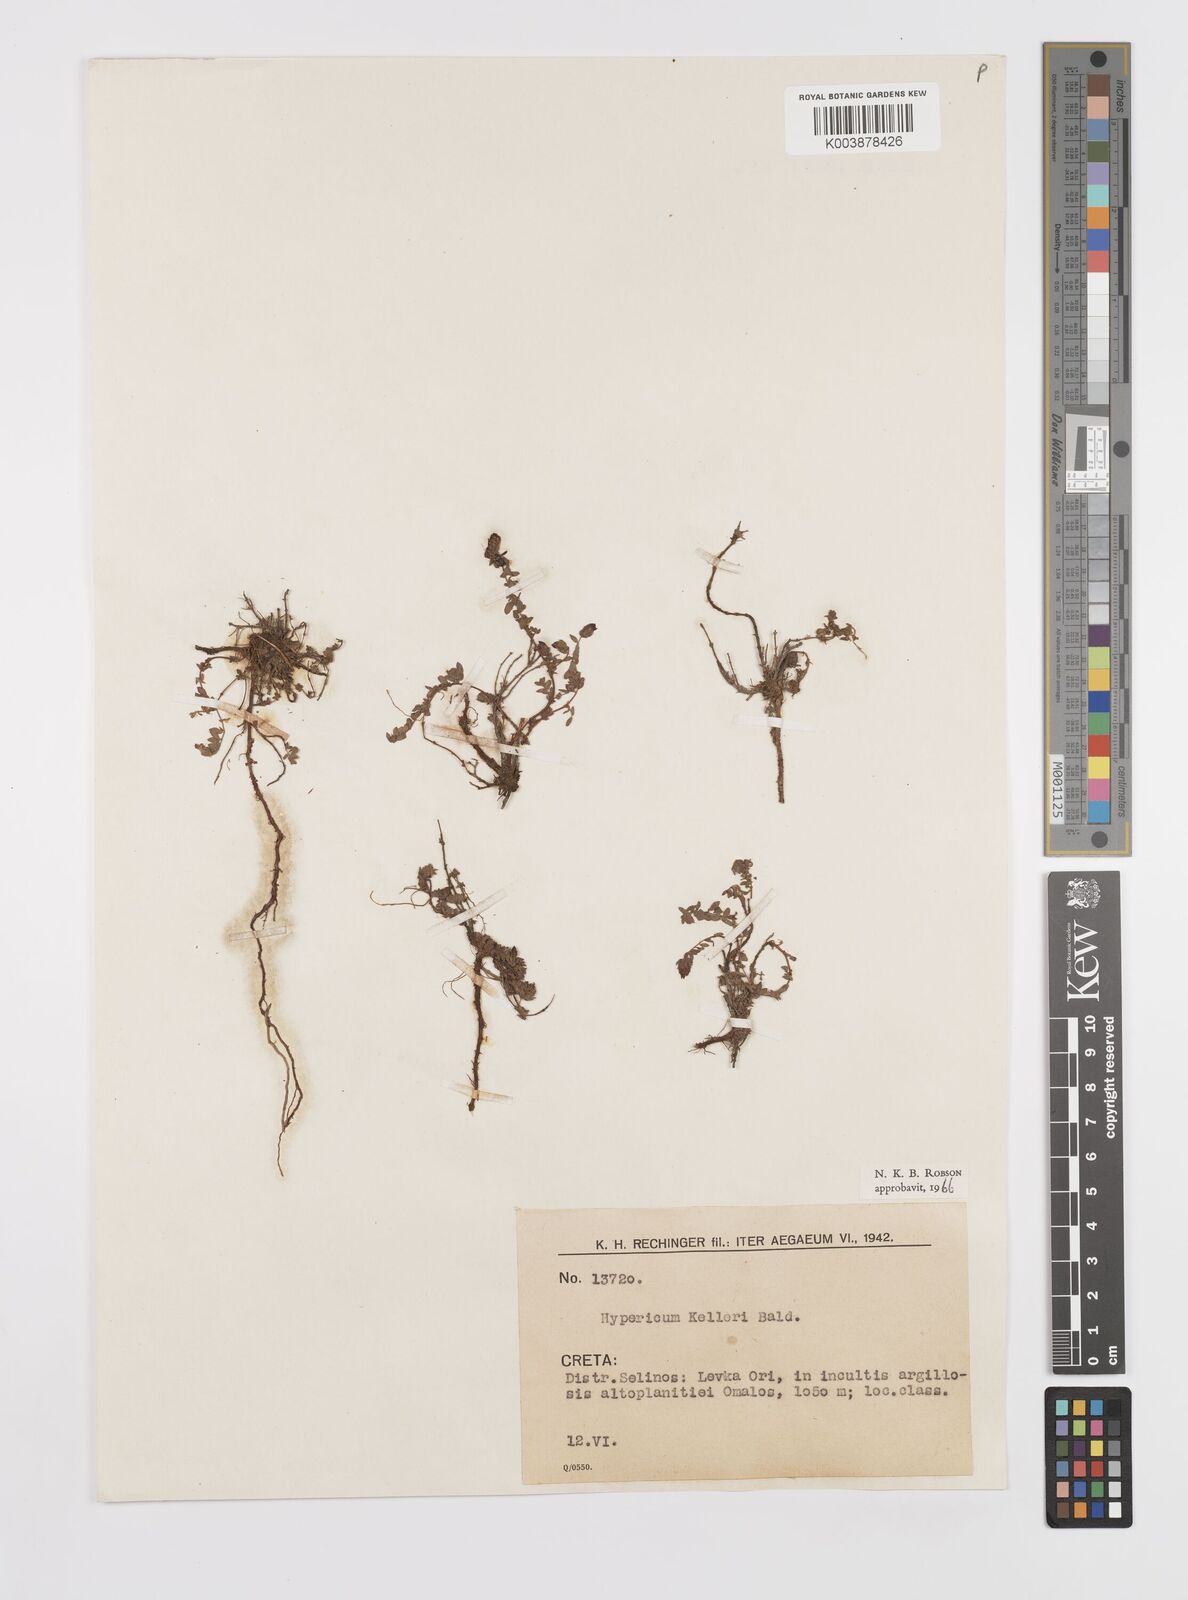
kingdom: Plantae
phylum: Tracheophyta
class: Magnoliopsida
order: Malpighiales
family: Hypericaceae
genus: Hypericum
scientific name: Hypericum kelleri
